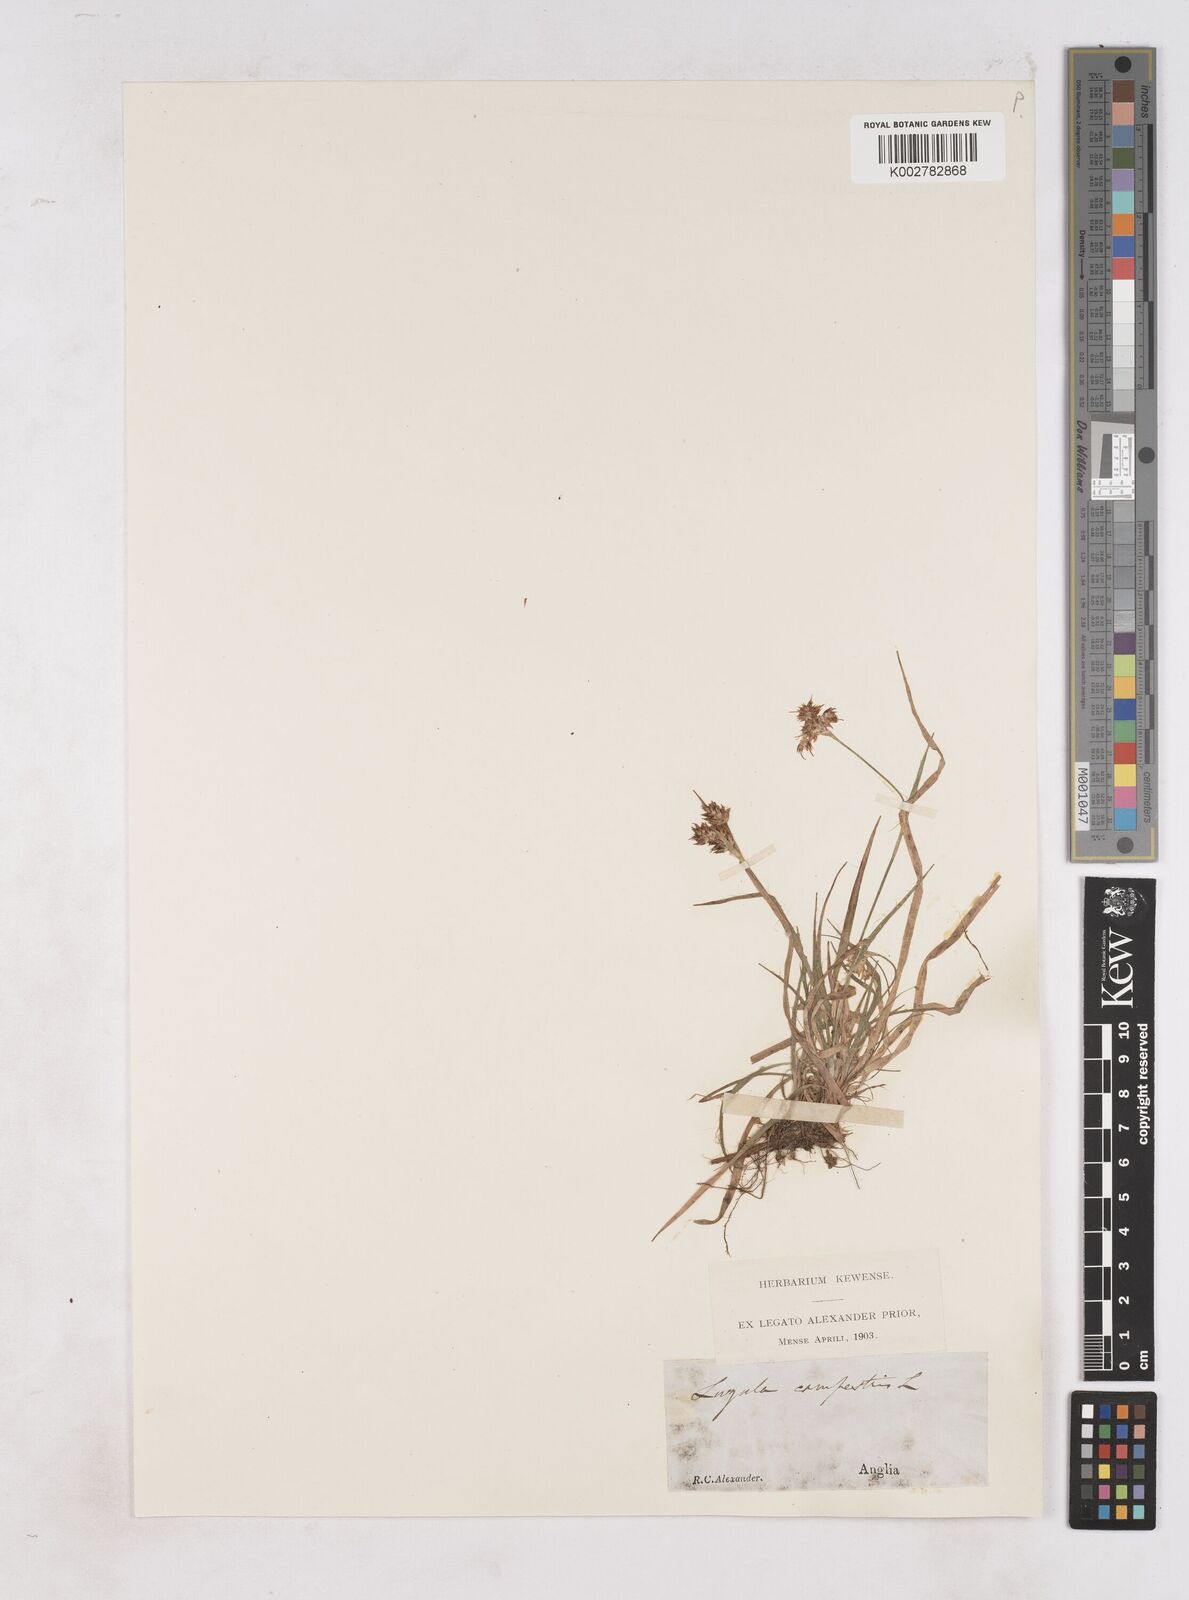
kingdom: Plantae
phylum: Tracheophyta
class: Liliopsida
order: Poales
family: Juncaceae
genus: Luzula
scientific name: Luzula campestris
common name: Field wood-rush
